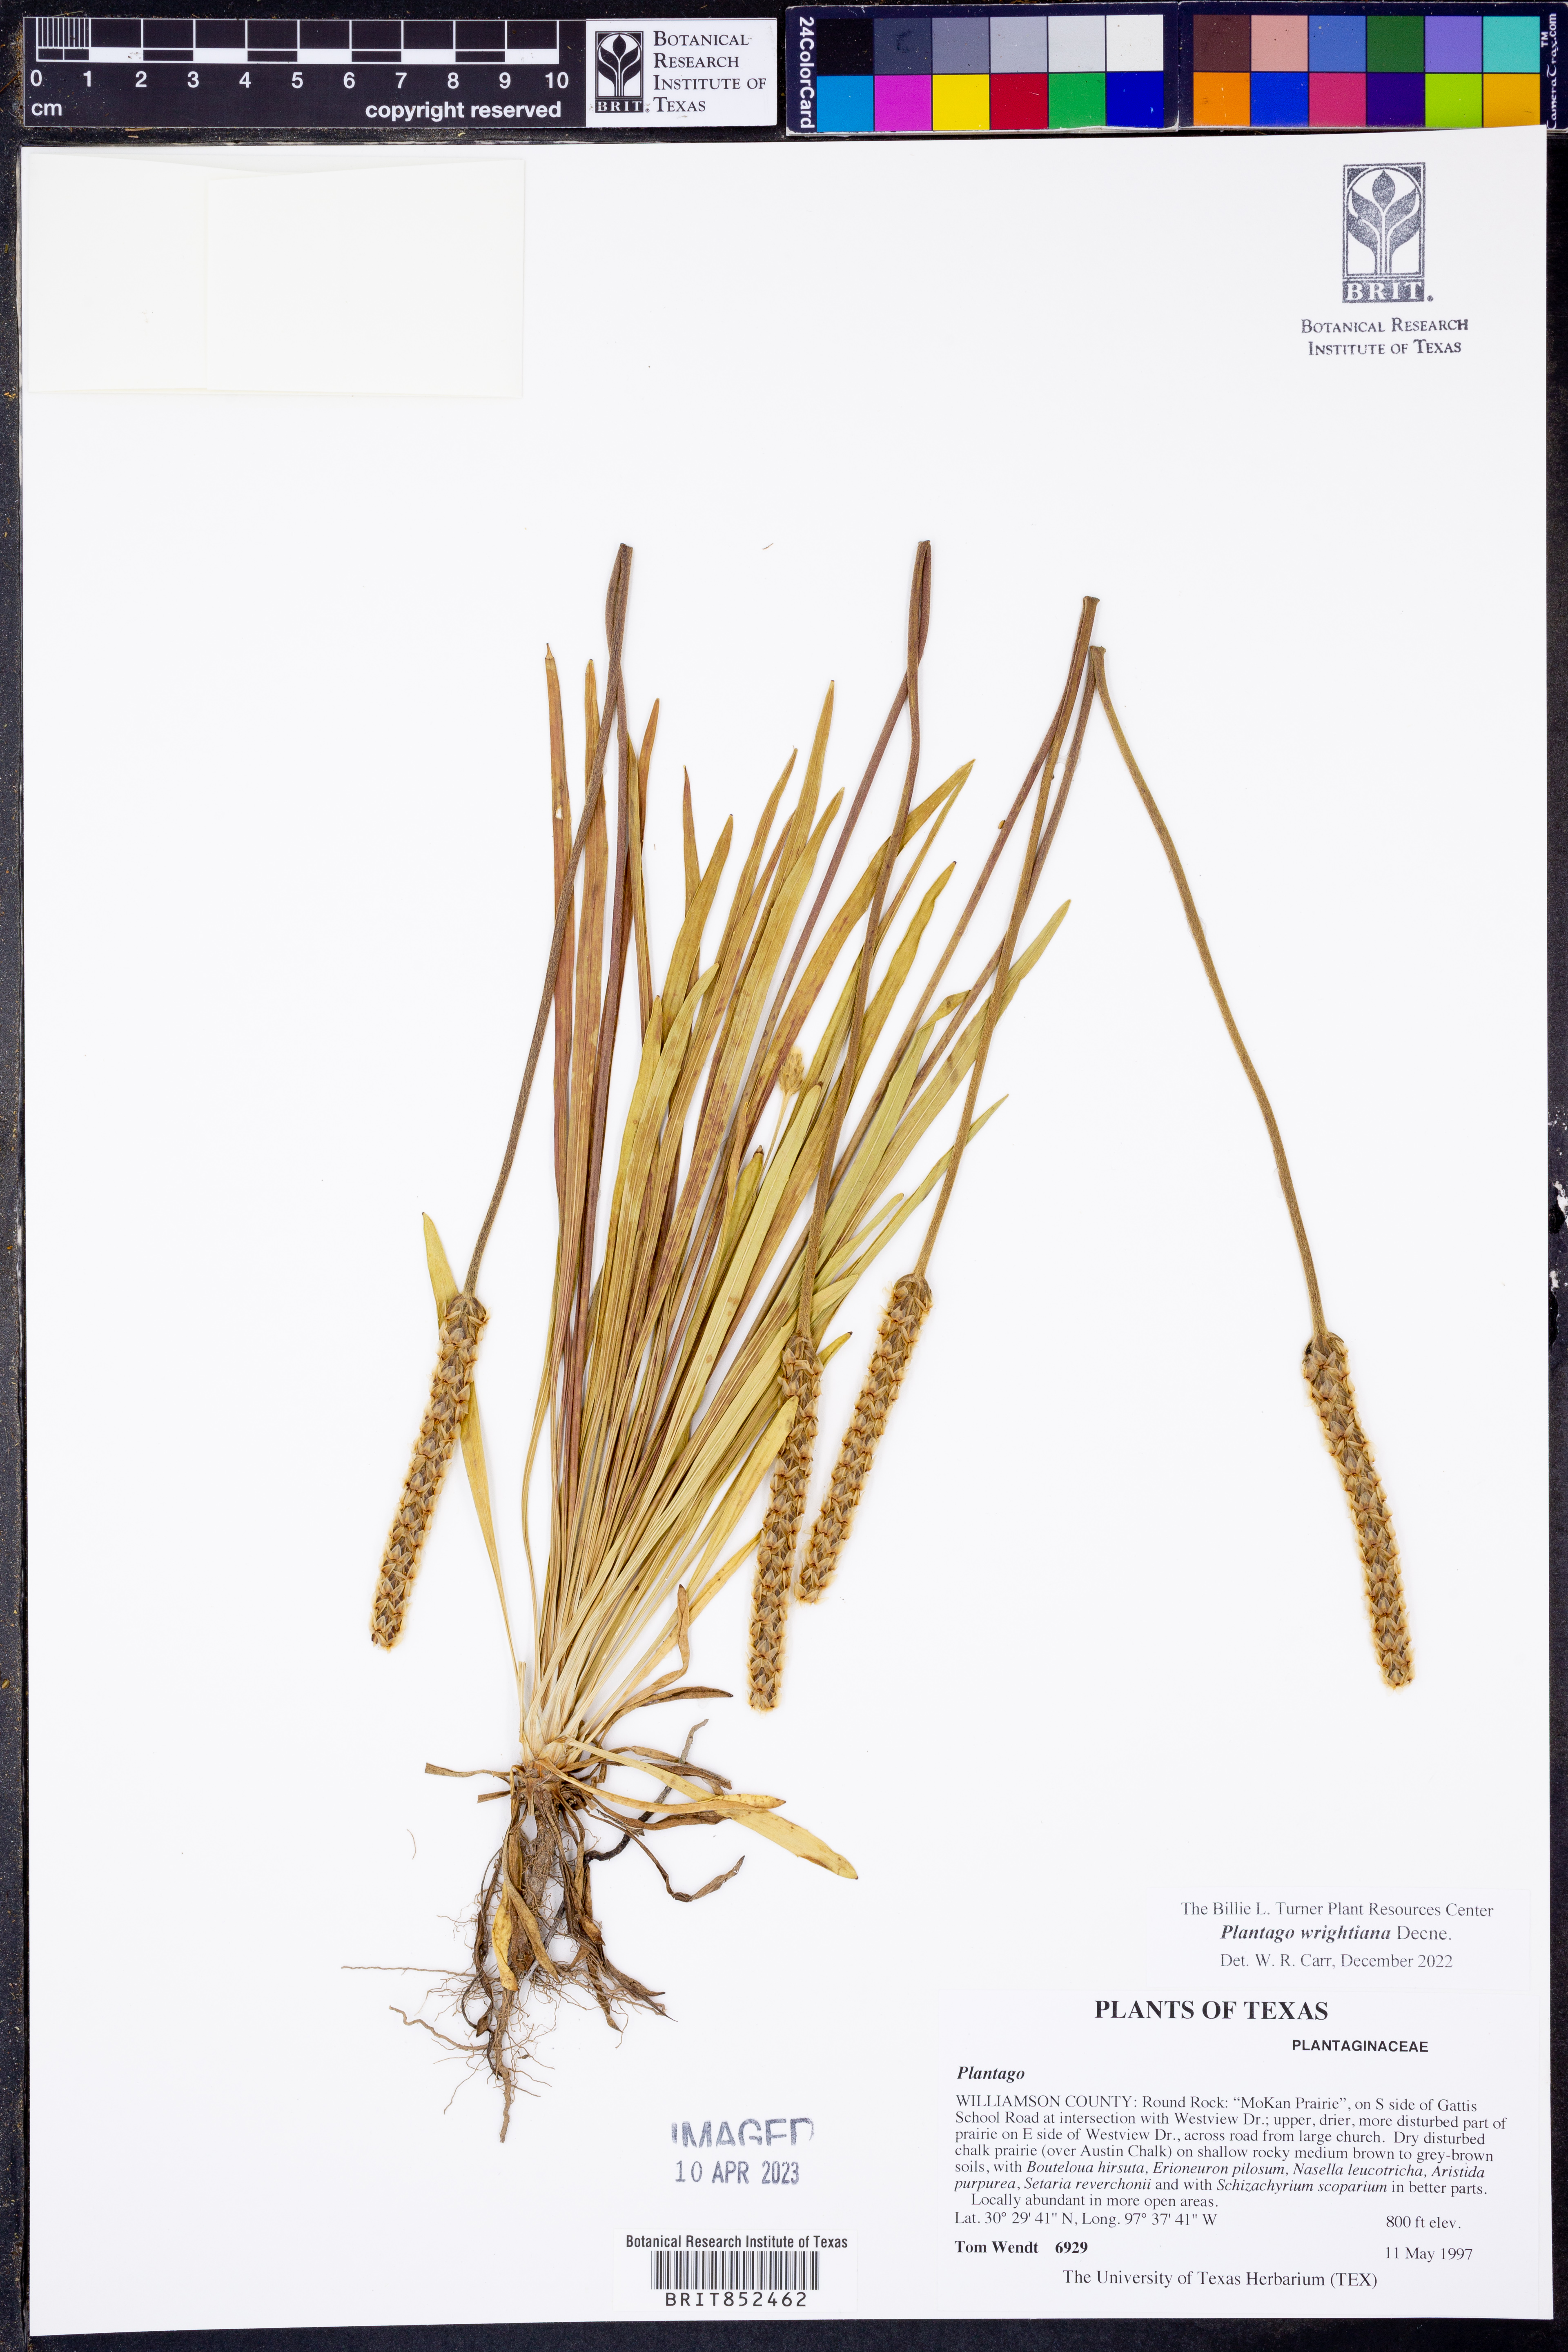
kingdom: Plantae
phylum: Tracheophyta
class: Magnoliopsida
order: Lamiales
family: Plantaginaceae
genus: Plantago
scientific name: Plantago wrightiana
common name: Wright's plantain
